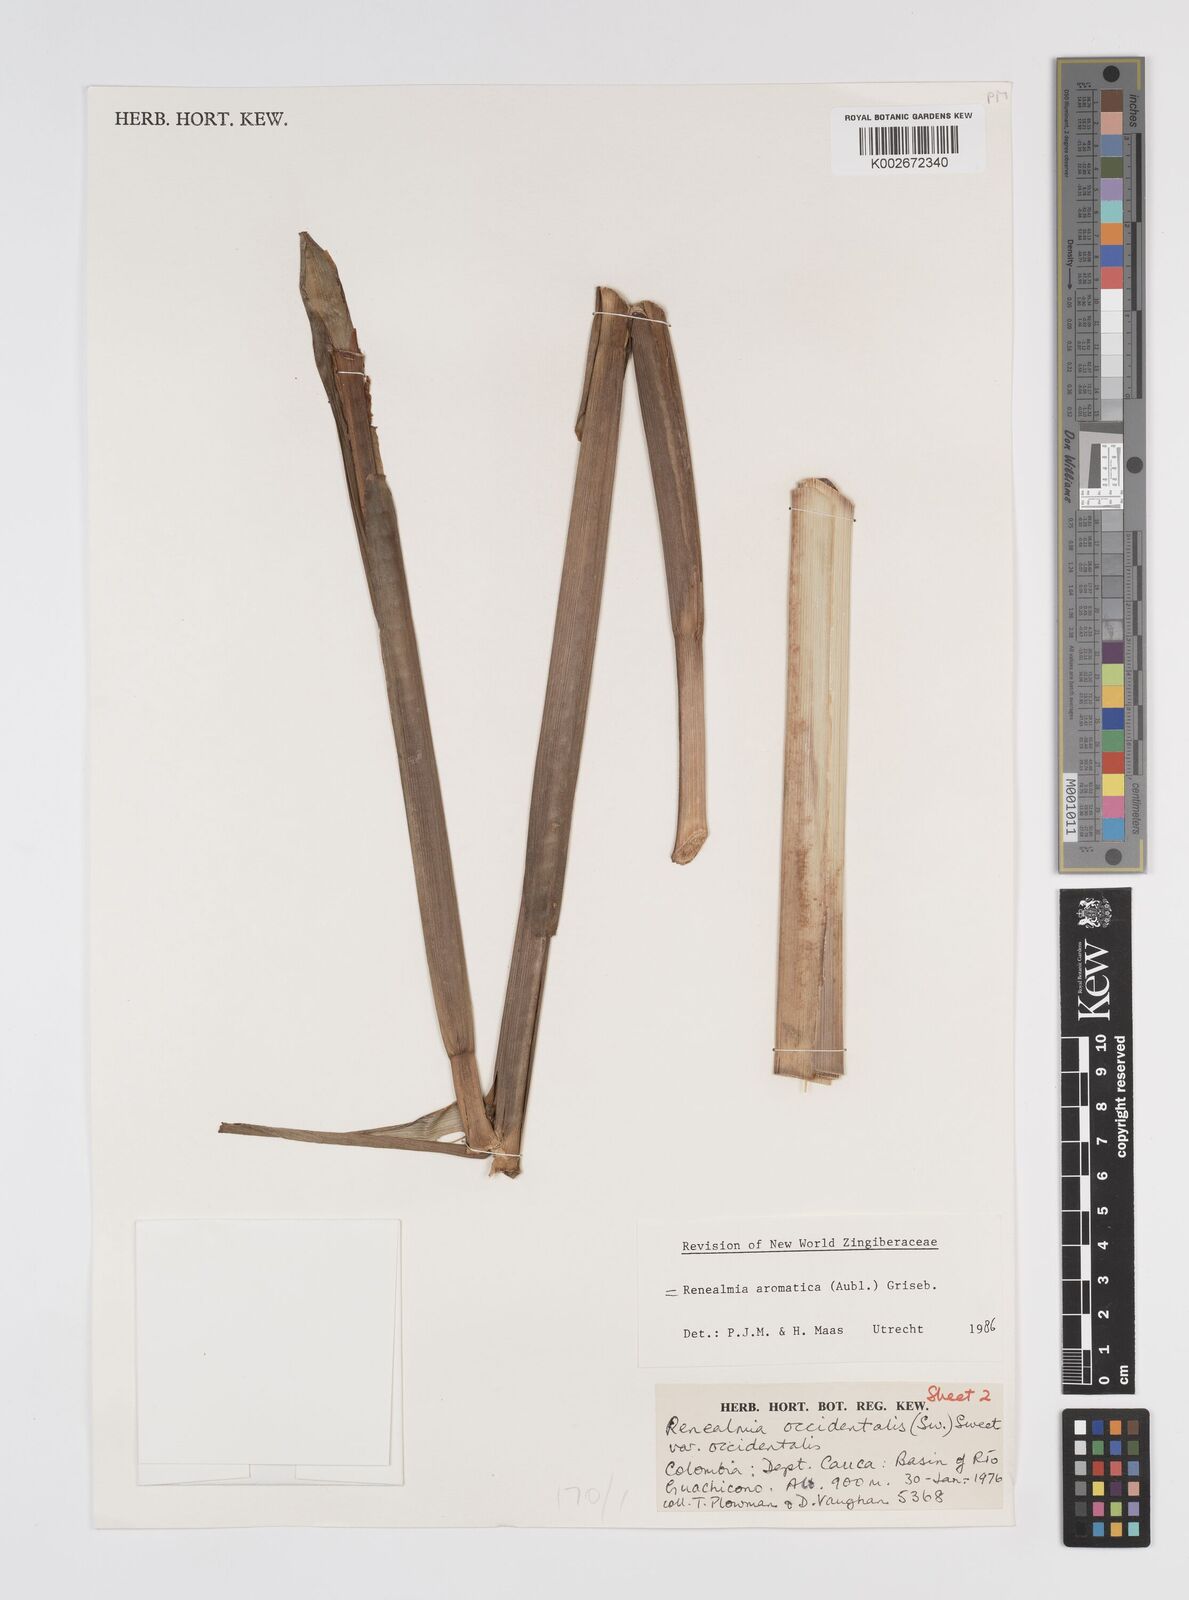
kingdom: Plantae
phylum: Tracheophyta
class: Liliopsida
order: Zingiberales
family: Zingiberaceae
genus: Renealmia
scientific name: Renealmia aromatica
